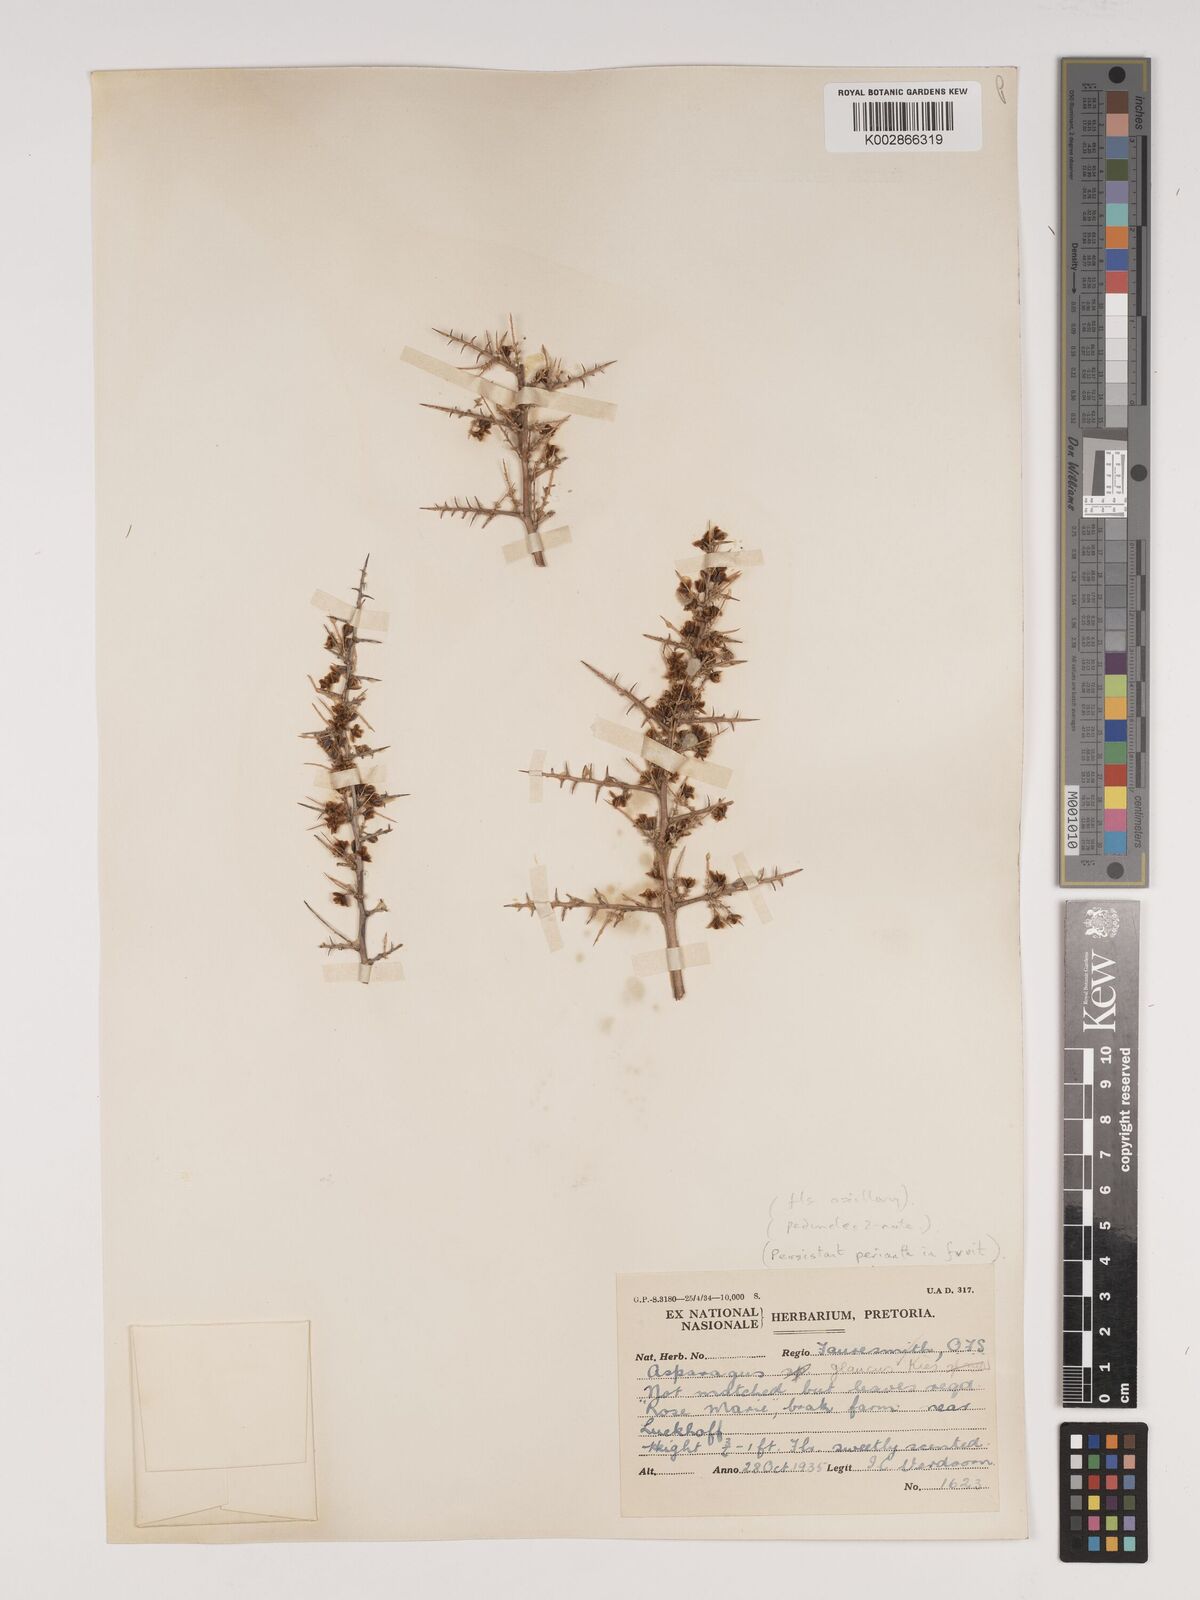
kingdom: Plantae
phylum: Tracheophyta
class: Liliopsida
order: Asparagales
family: Asparagaceae
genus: Asparagus
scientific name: Asparagus glaucus
